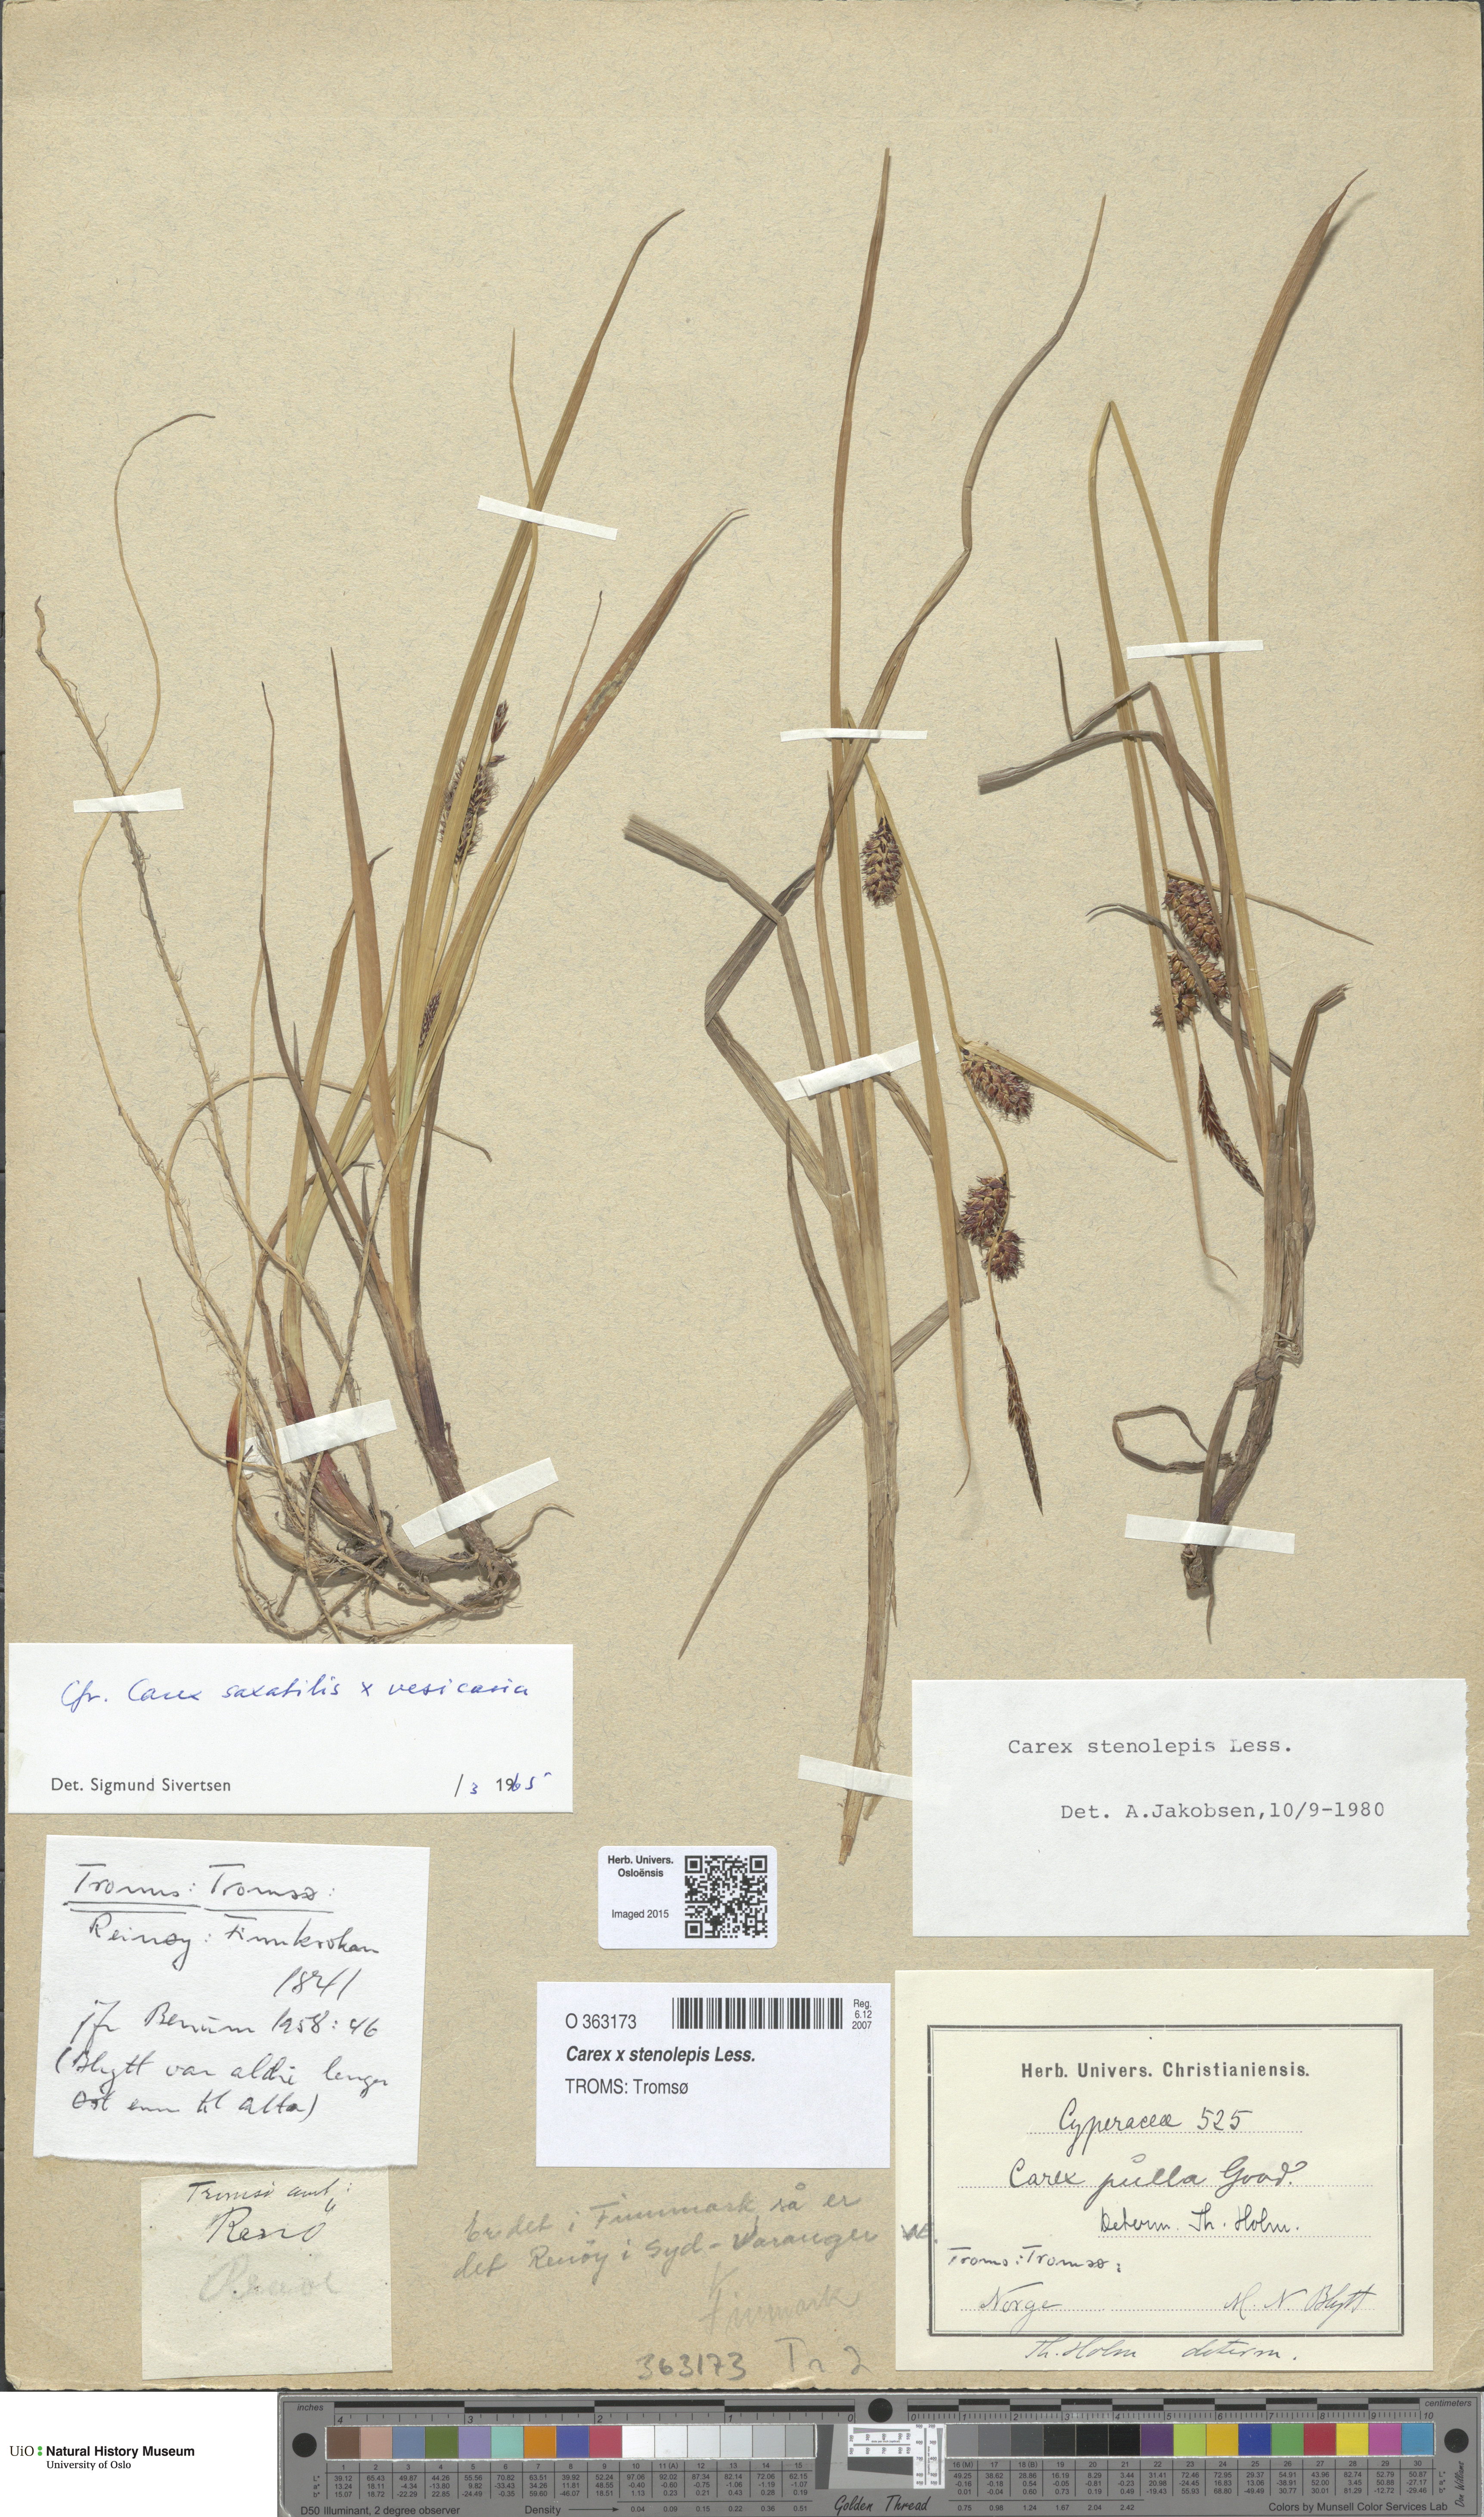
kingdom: Plantae
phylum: Tracheophyta
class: Liliopsida
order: Poales
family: Cyperaceae
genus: Carex
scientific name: Carex grahamii
